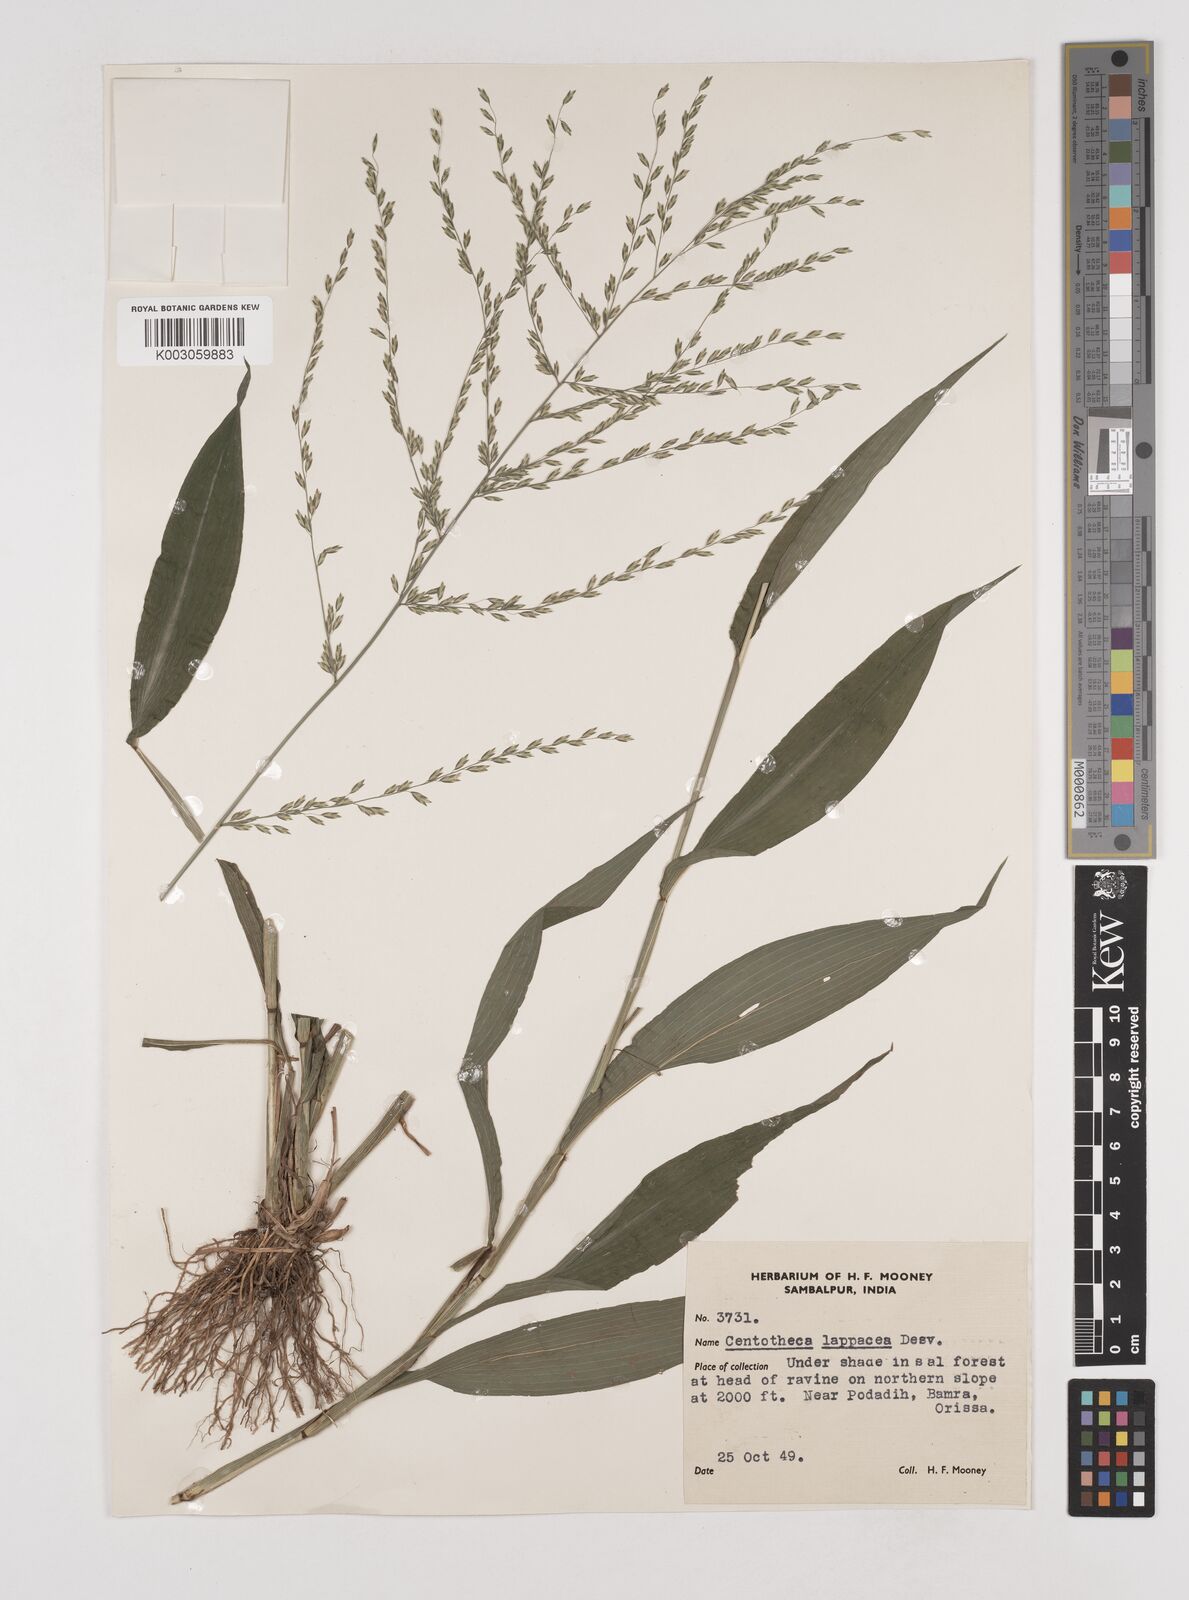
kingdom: Plantae
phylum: Tracheophyta
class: Liliopsida
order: Poales
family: Poaceae
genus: Centotheca
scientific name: Centotheca lappacea
